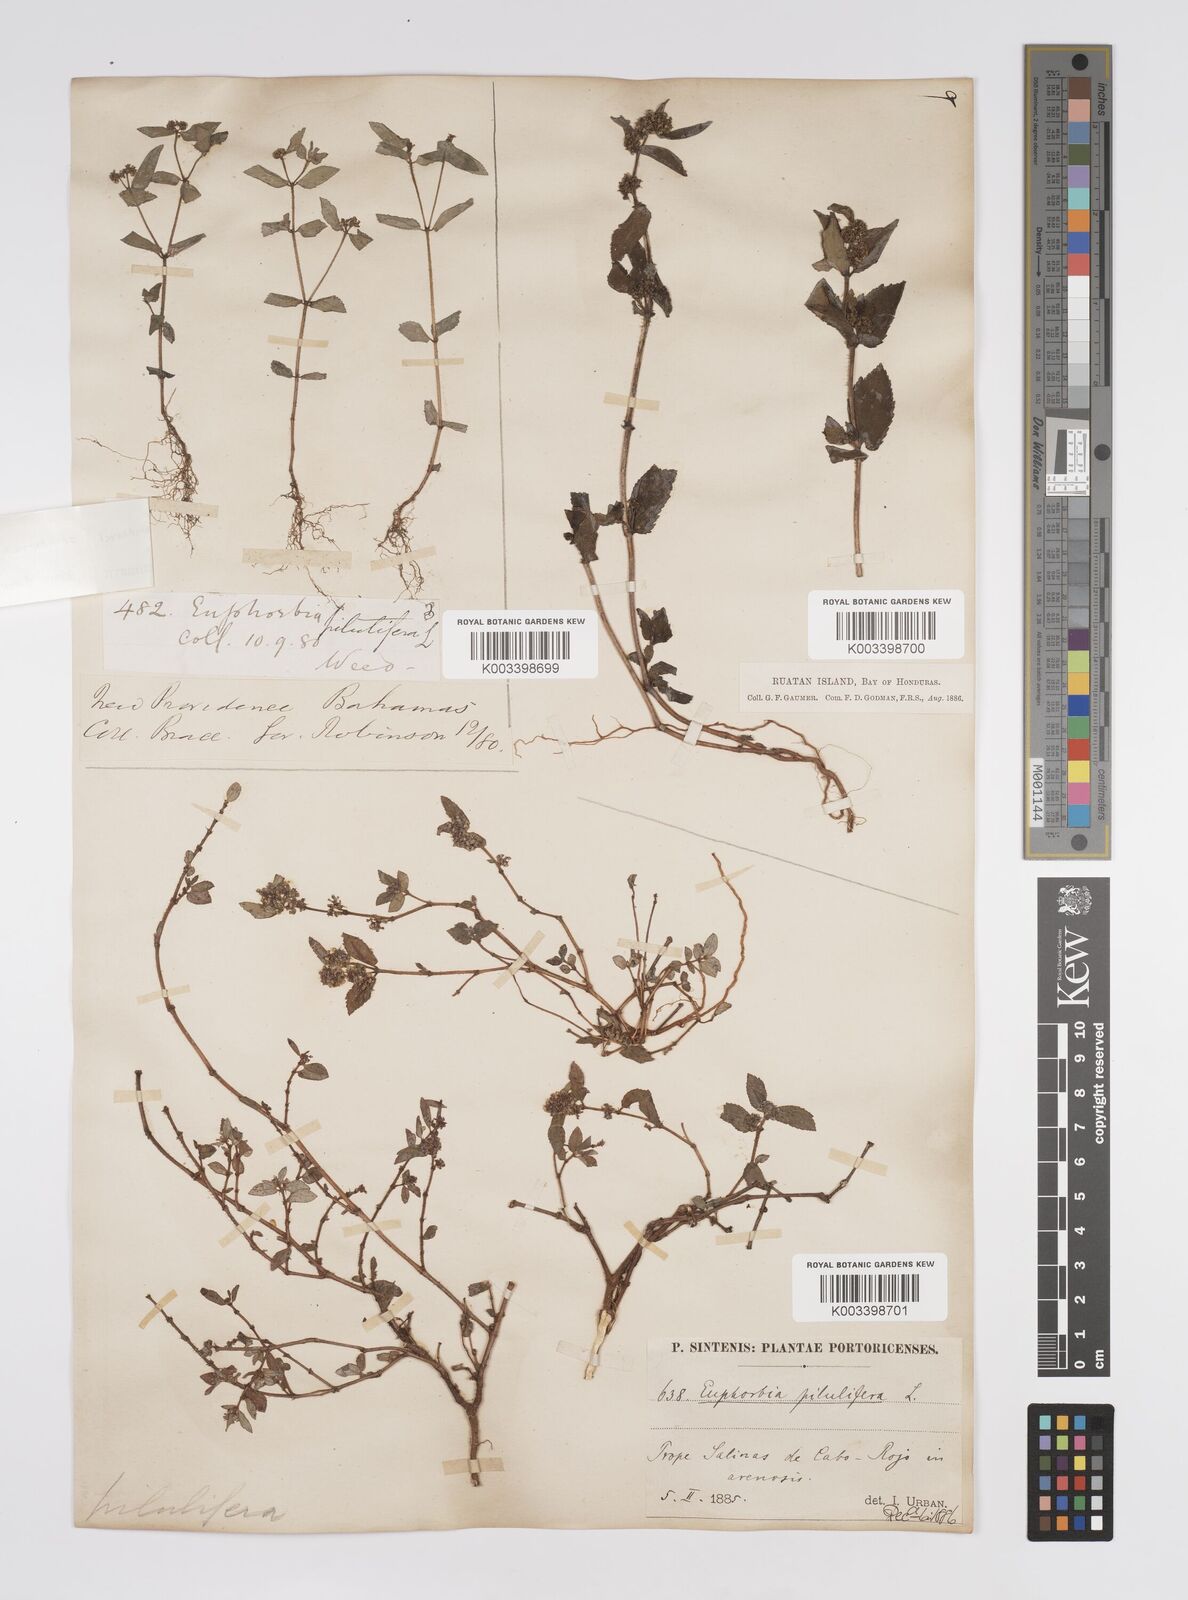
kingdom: Plantae
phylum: Tracheophyta
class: Magnoliopsida
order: Malpighiales
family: Euphorbiaceae
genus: Euphorbia
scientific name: Euphorbia hirta
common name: Pillpod sandmat
